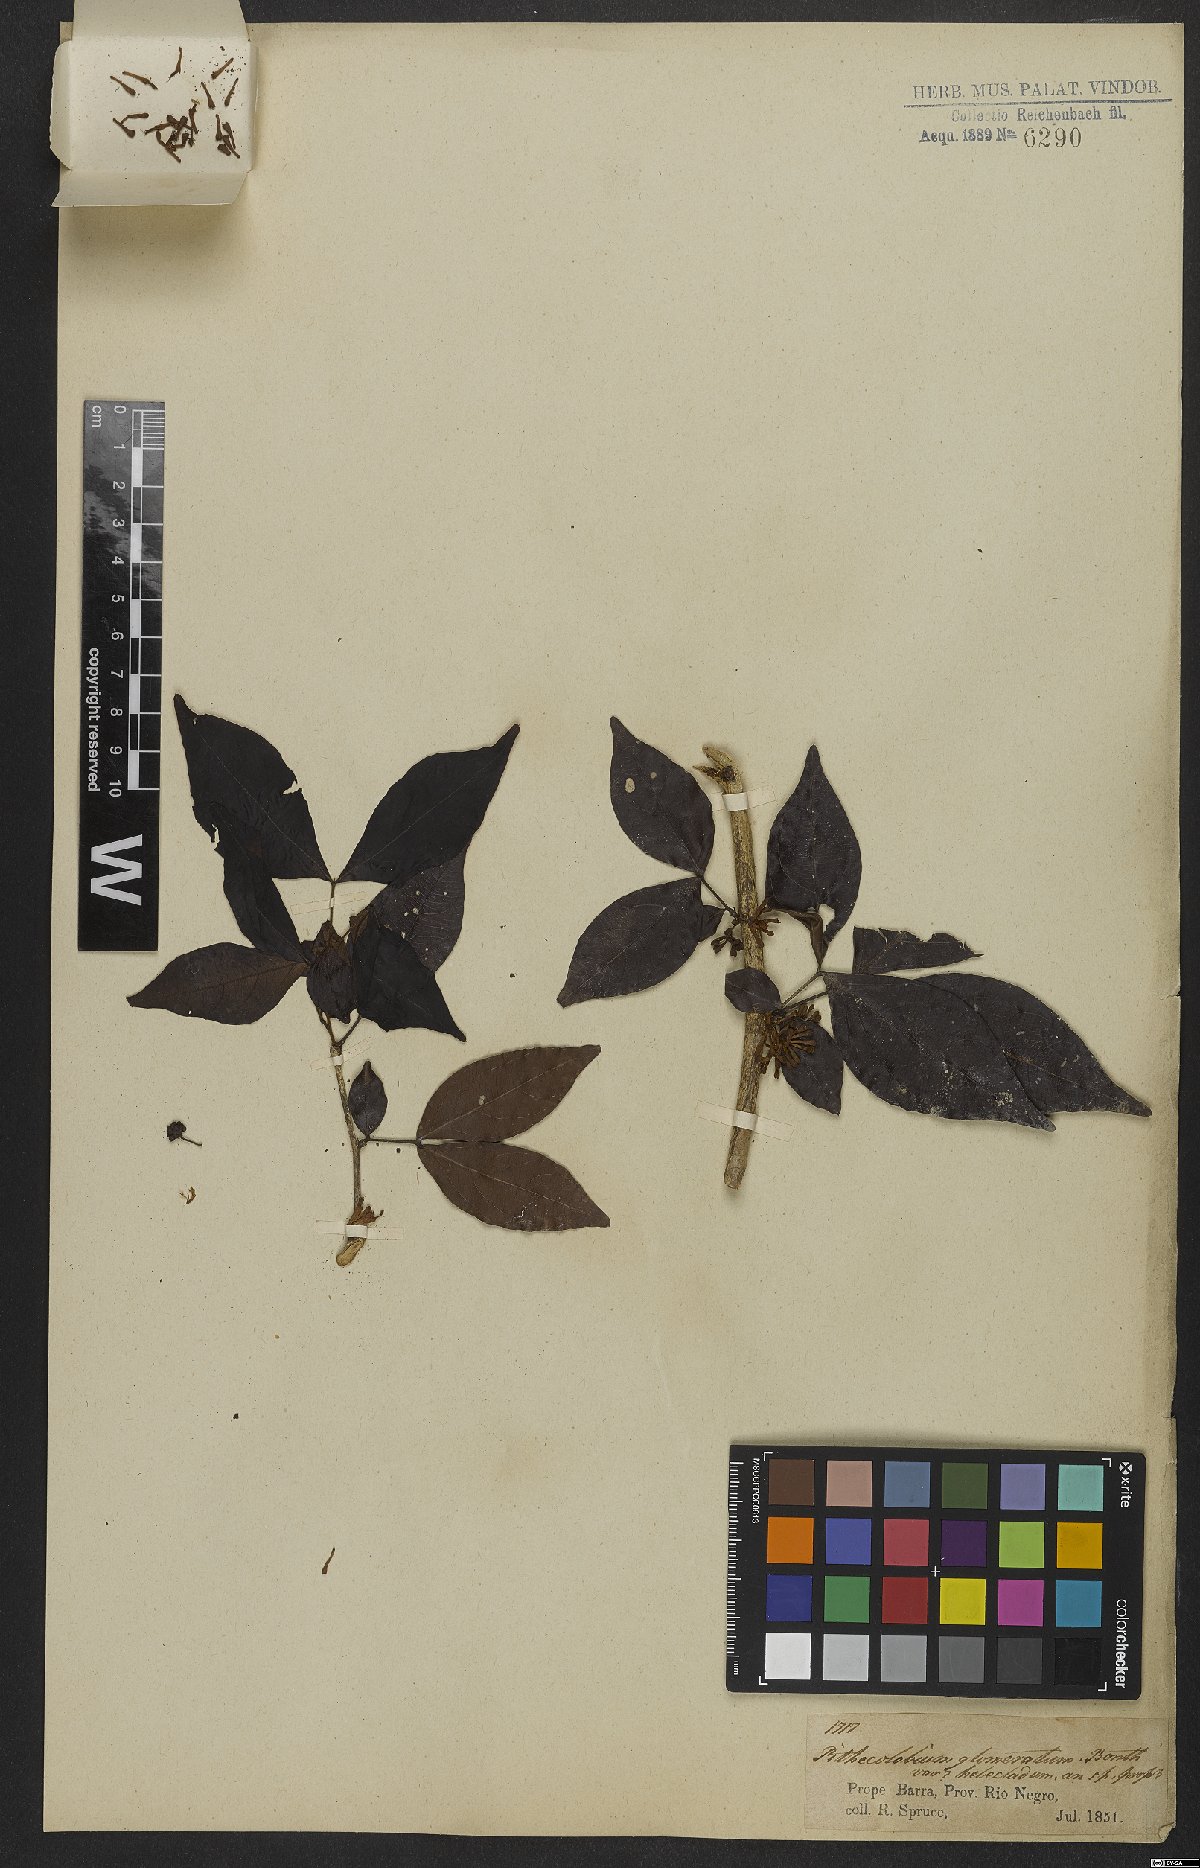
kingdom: Plantae
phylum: Tracheophyta
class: Magnoliopsida
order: Fabales
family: Fabaceae
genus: Zygia
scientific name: Zygia cataractae
